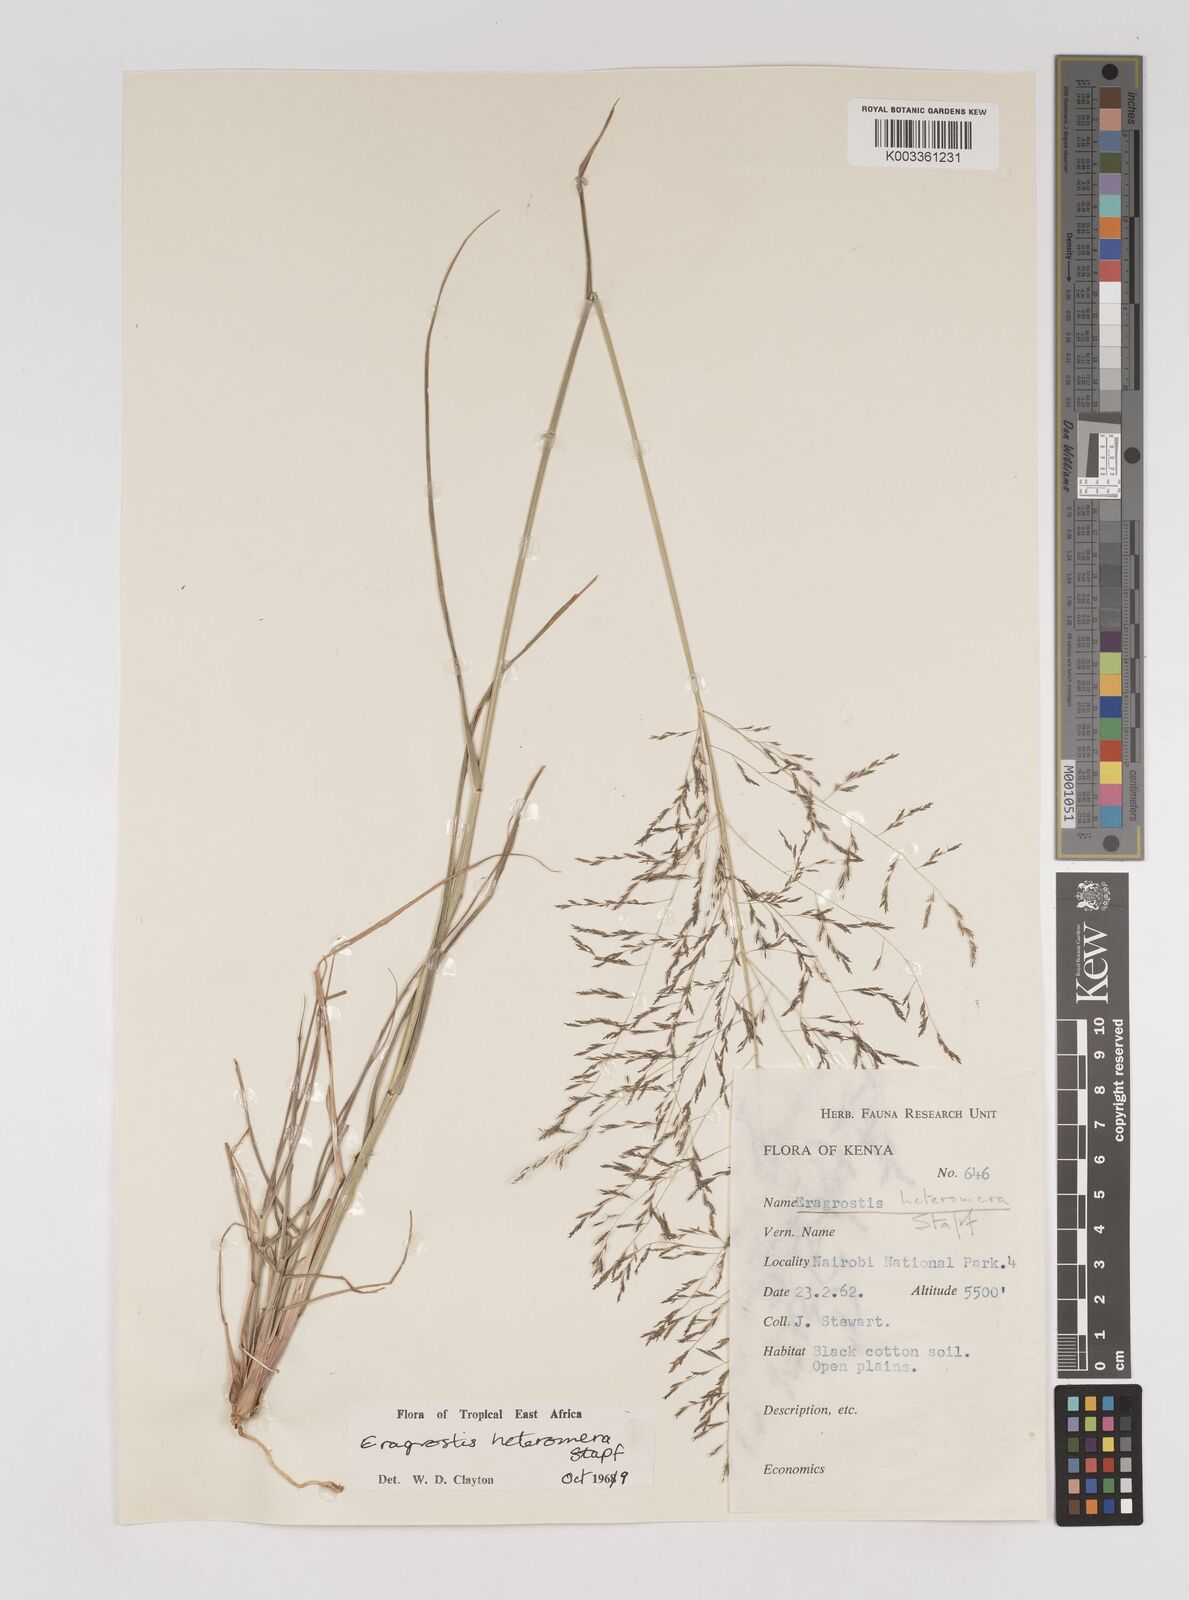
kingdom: Plantae
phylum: Tracheophyta
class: Liliopsida
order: Poales
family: Poaceae
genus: Eragrostis
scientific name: Eragrostis heteromera
